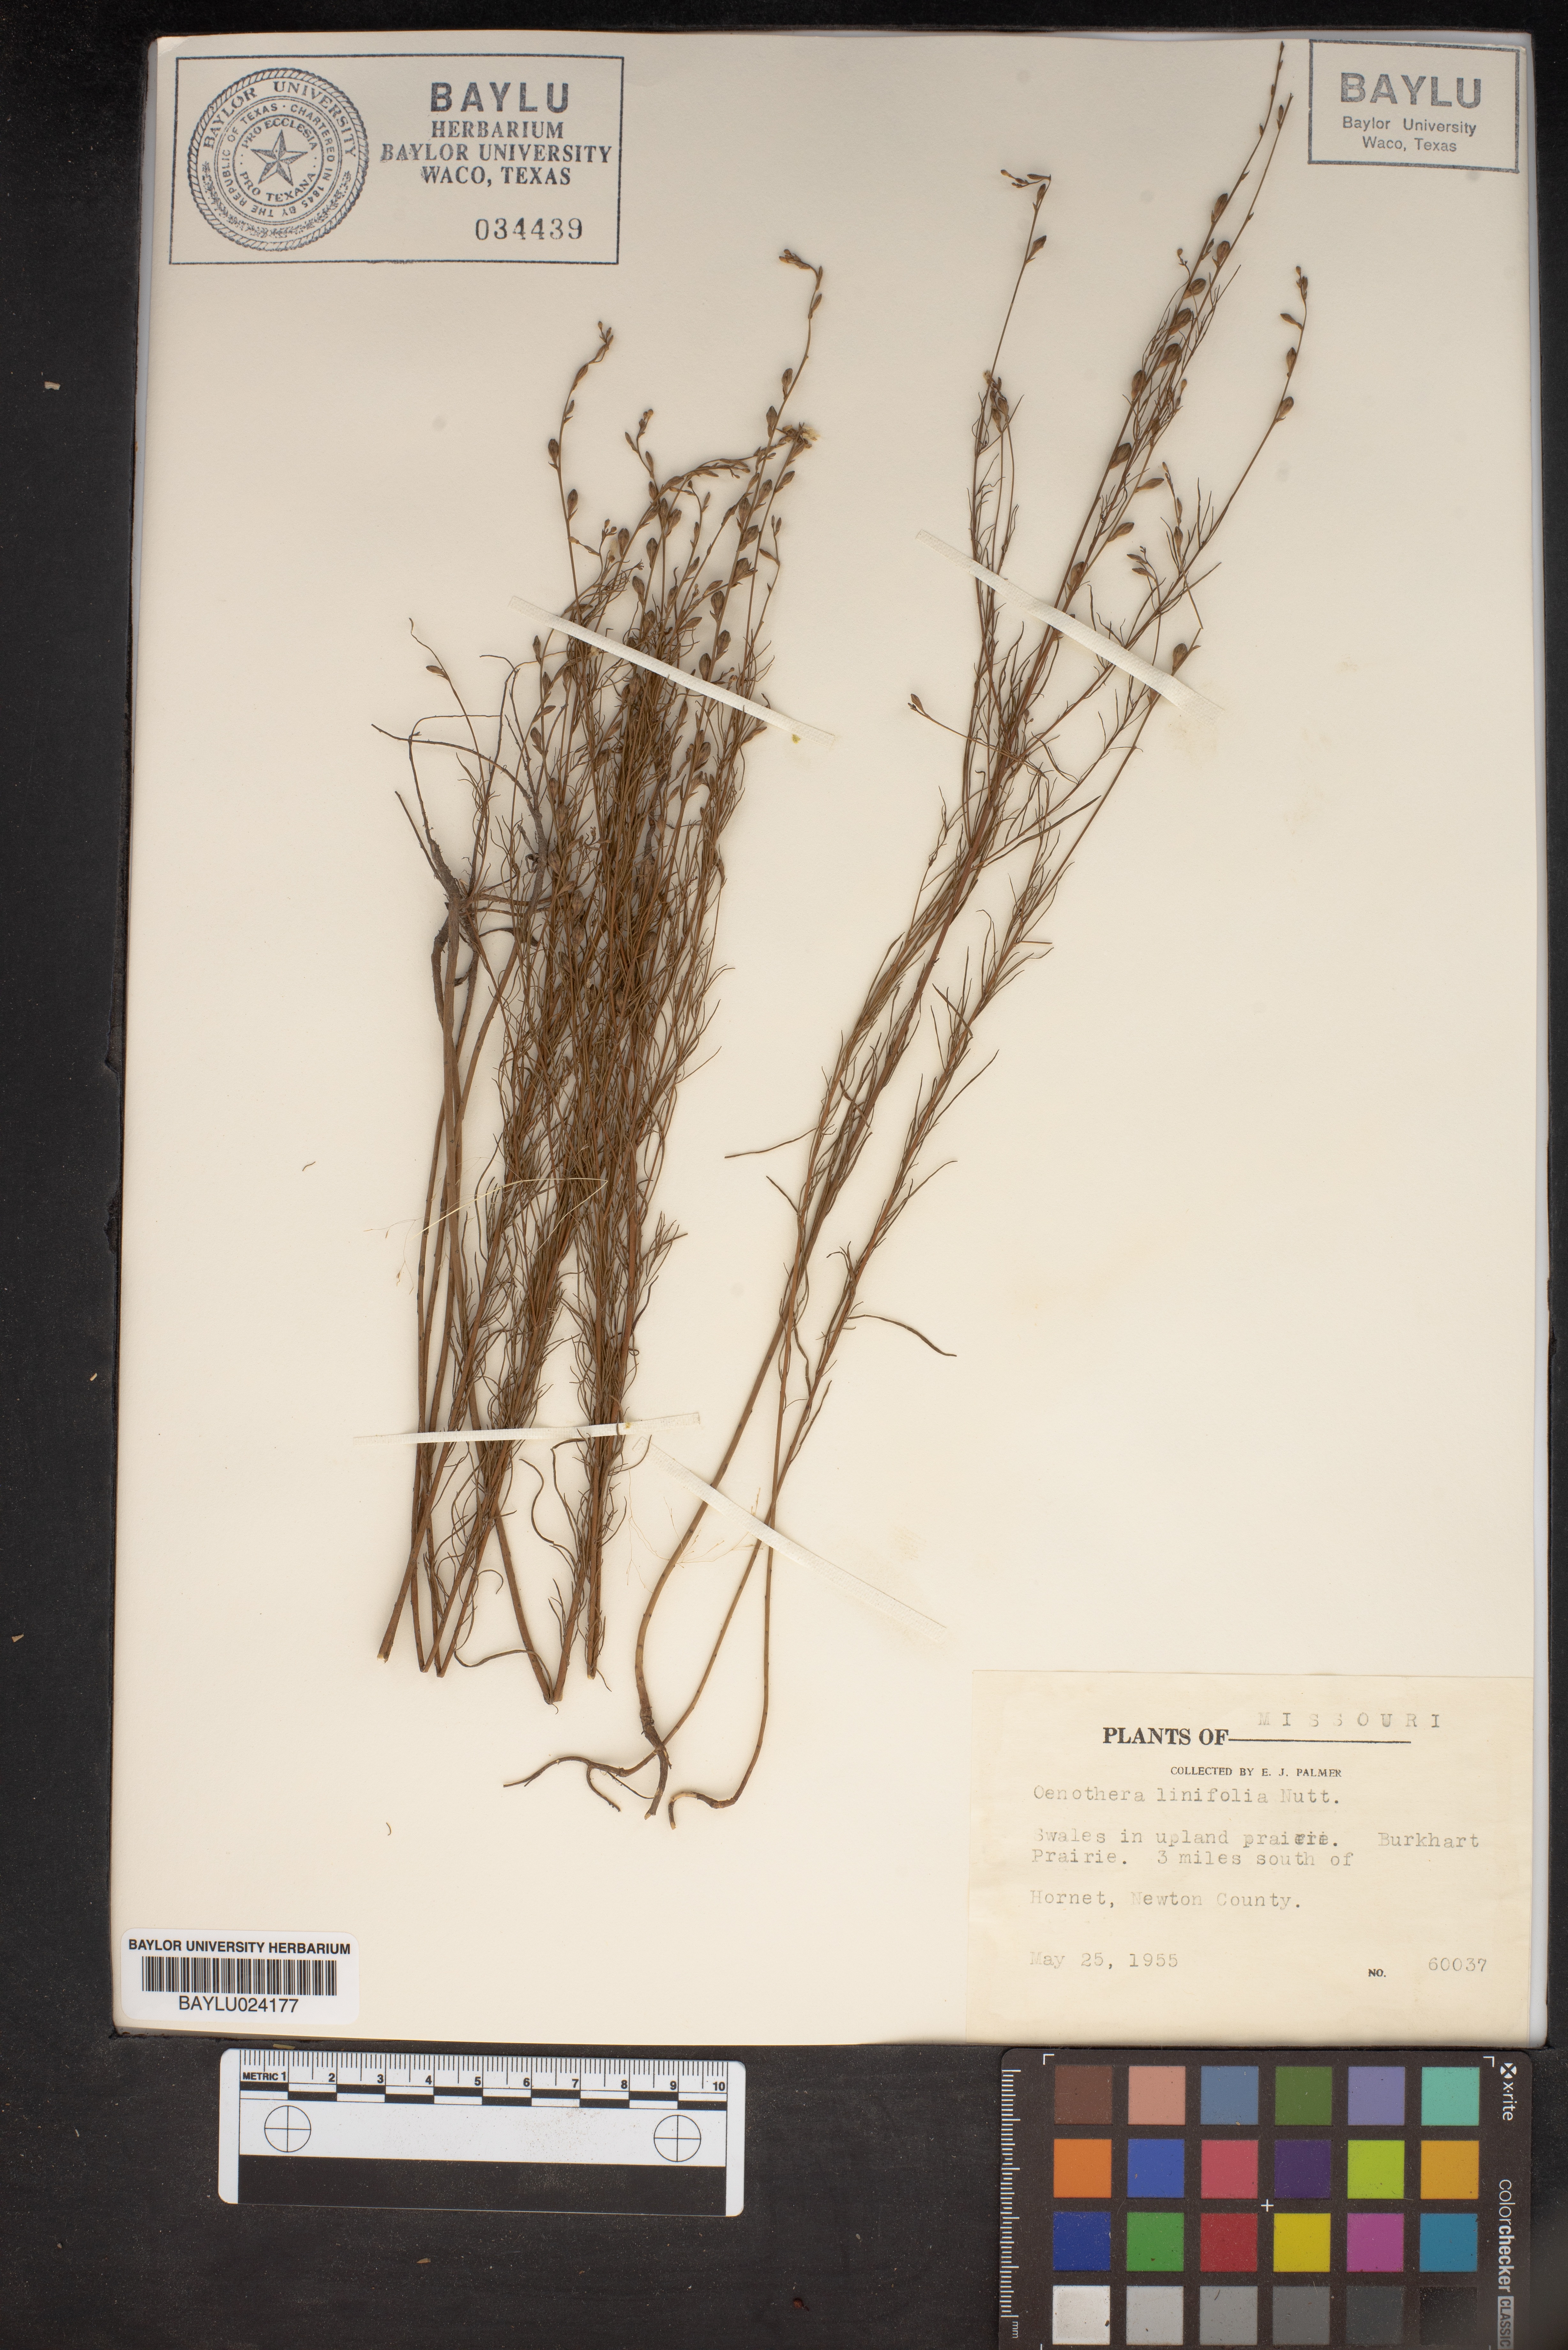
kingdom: Plantae
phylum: Tracheophyta
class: Magnoliopsida
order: Myrtales
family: Onagraceae
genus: Oenothera
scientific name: Oenothera linifolia
